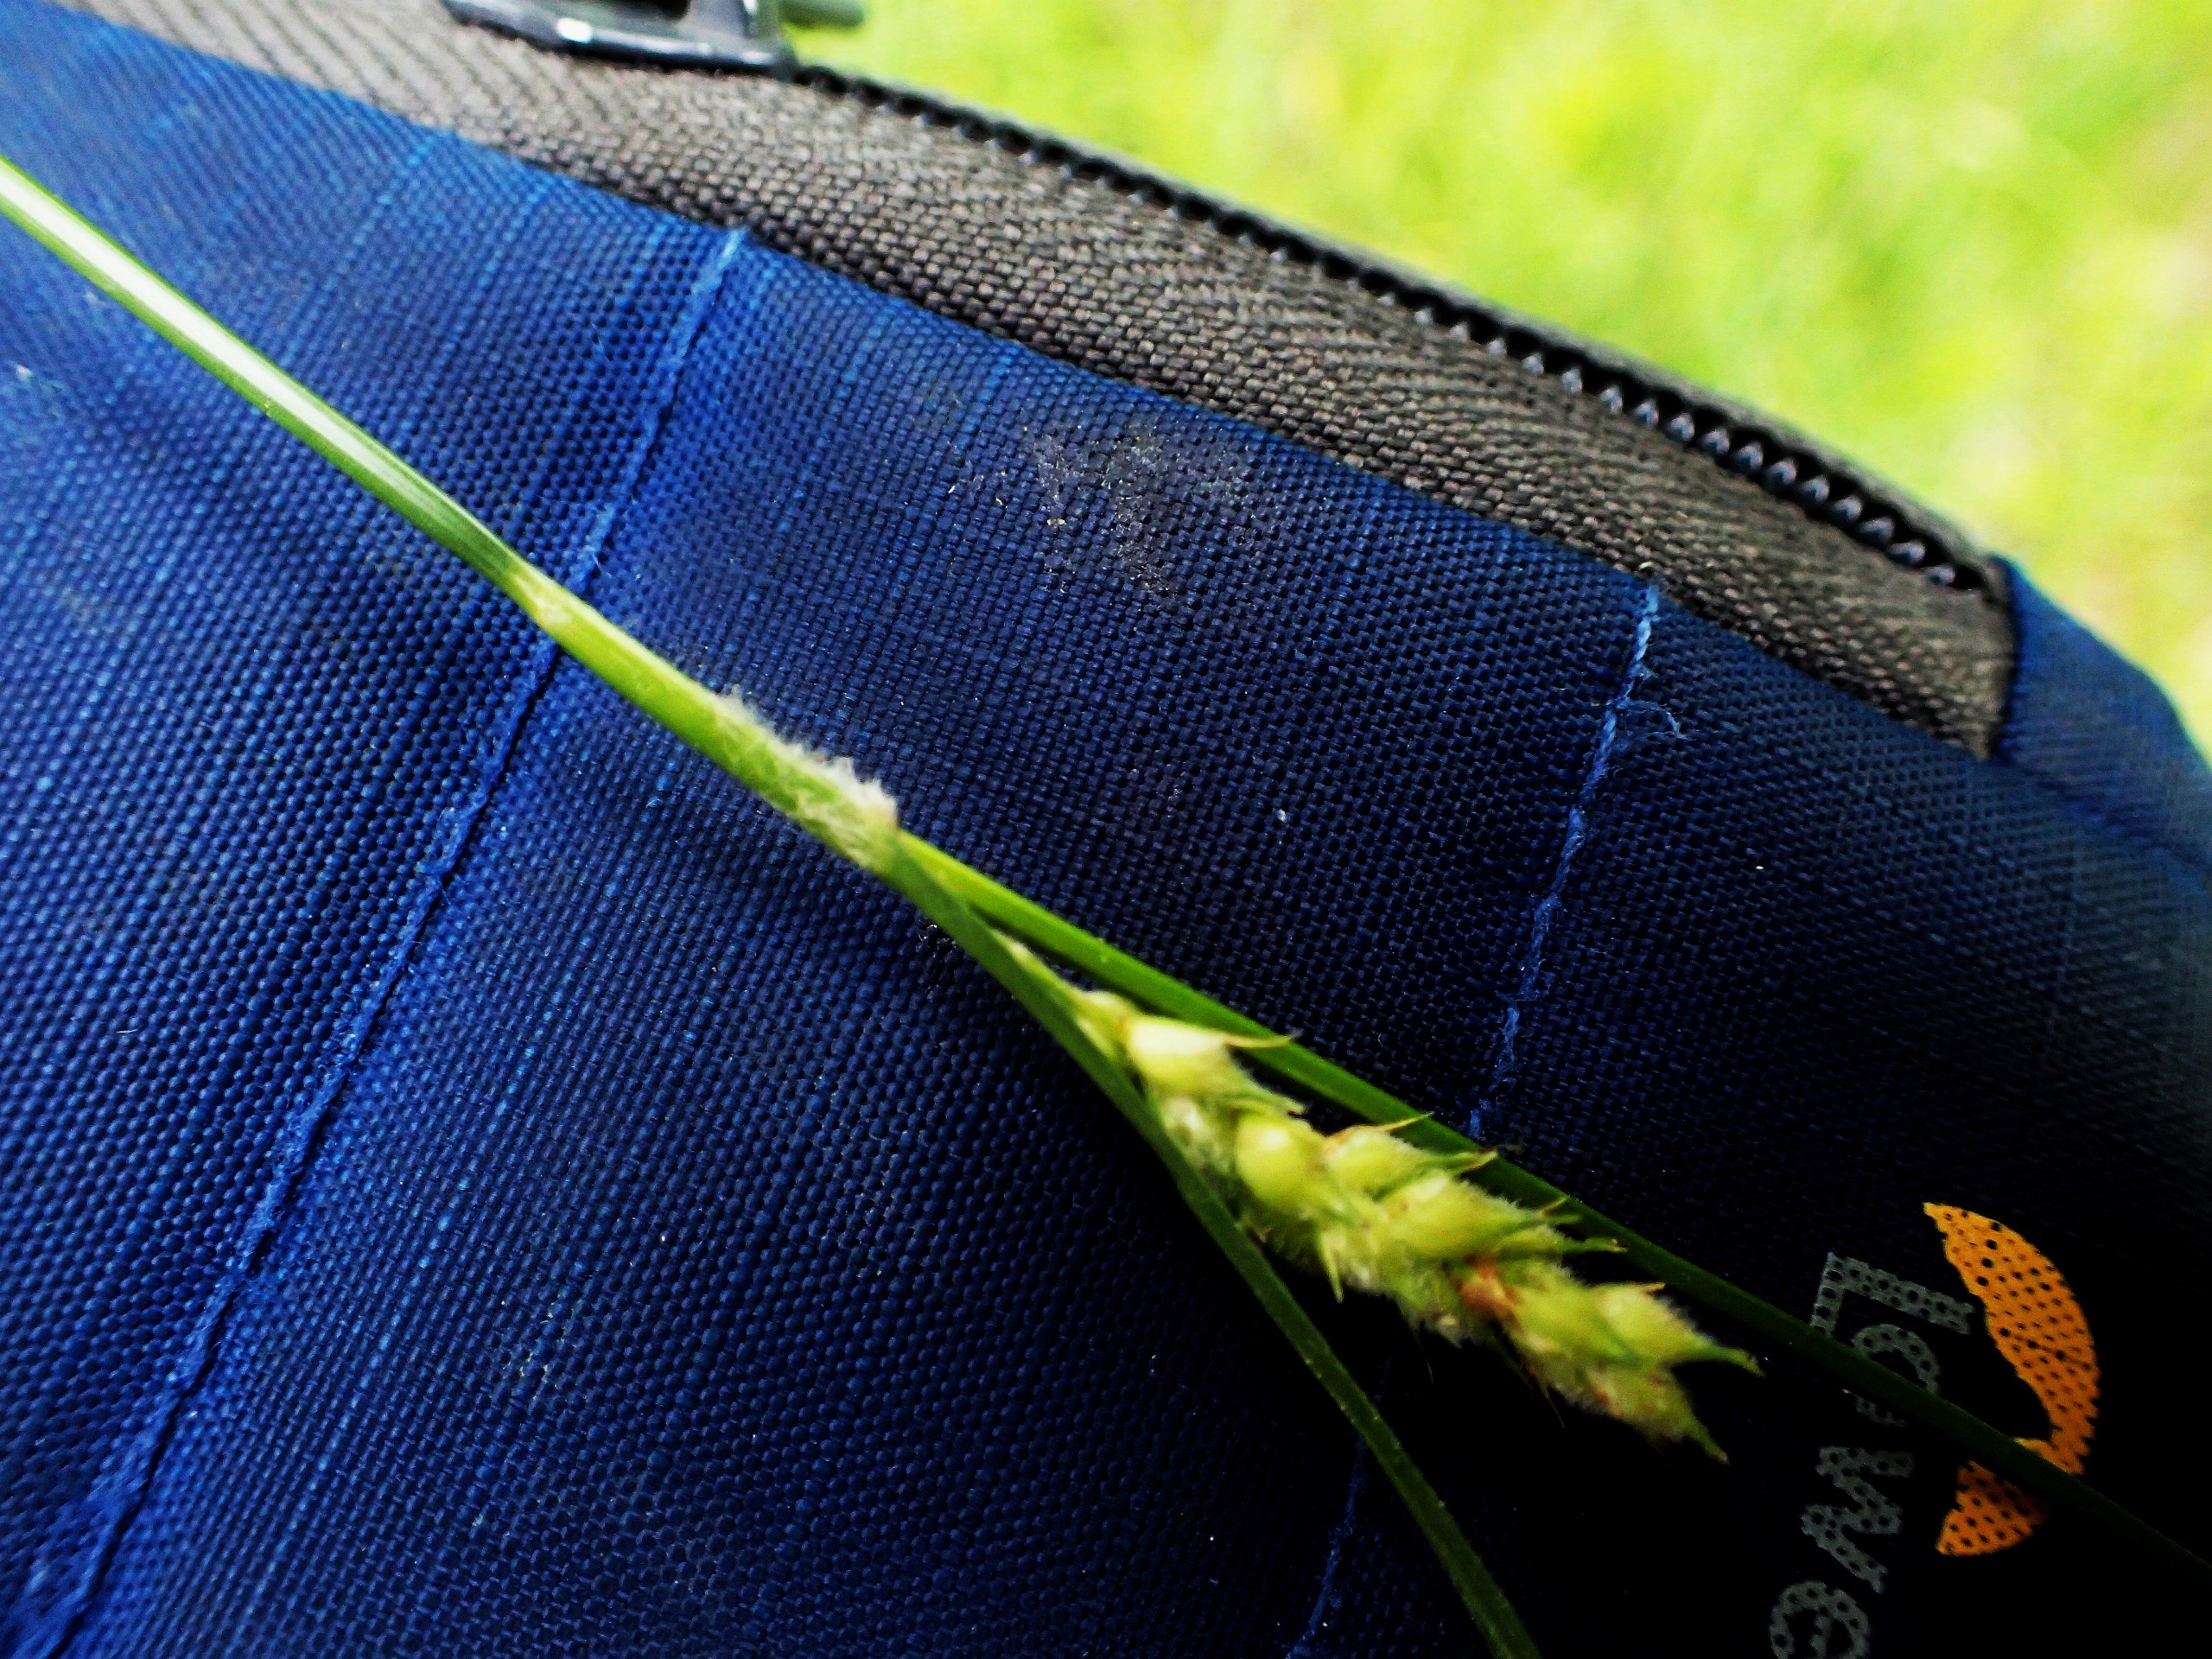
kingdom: Plantae
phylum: Tracheophyta
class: Liliopsida
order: Poales
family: Cyperaceae
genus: Carex
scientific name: Carex hirta
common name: Håret star
